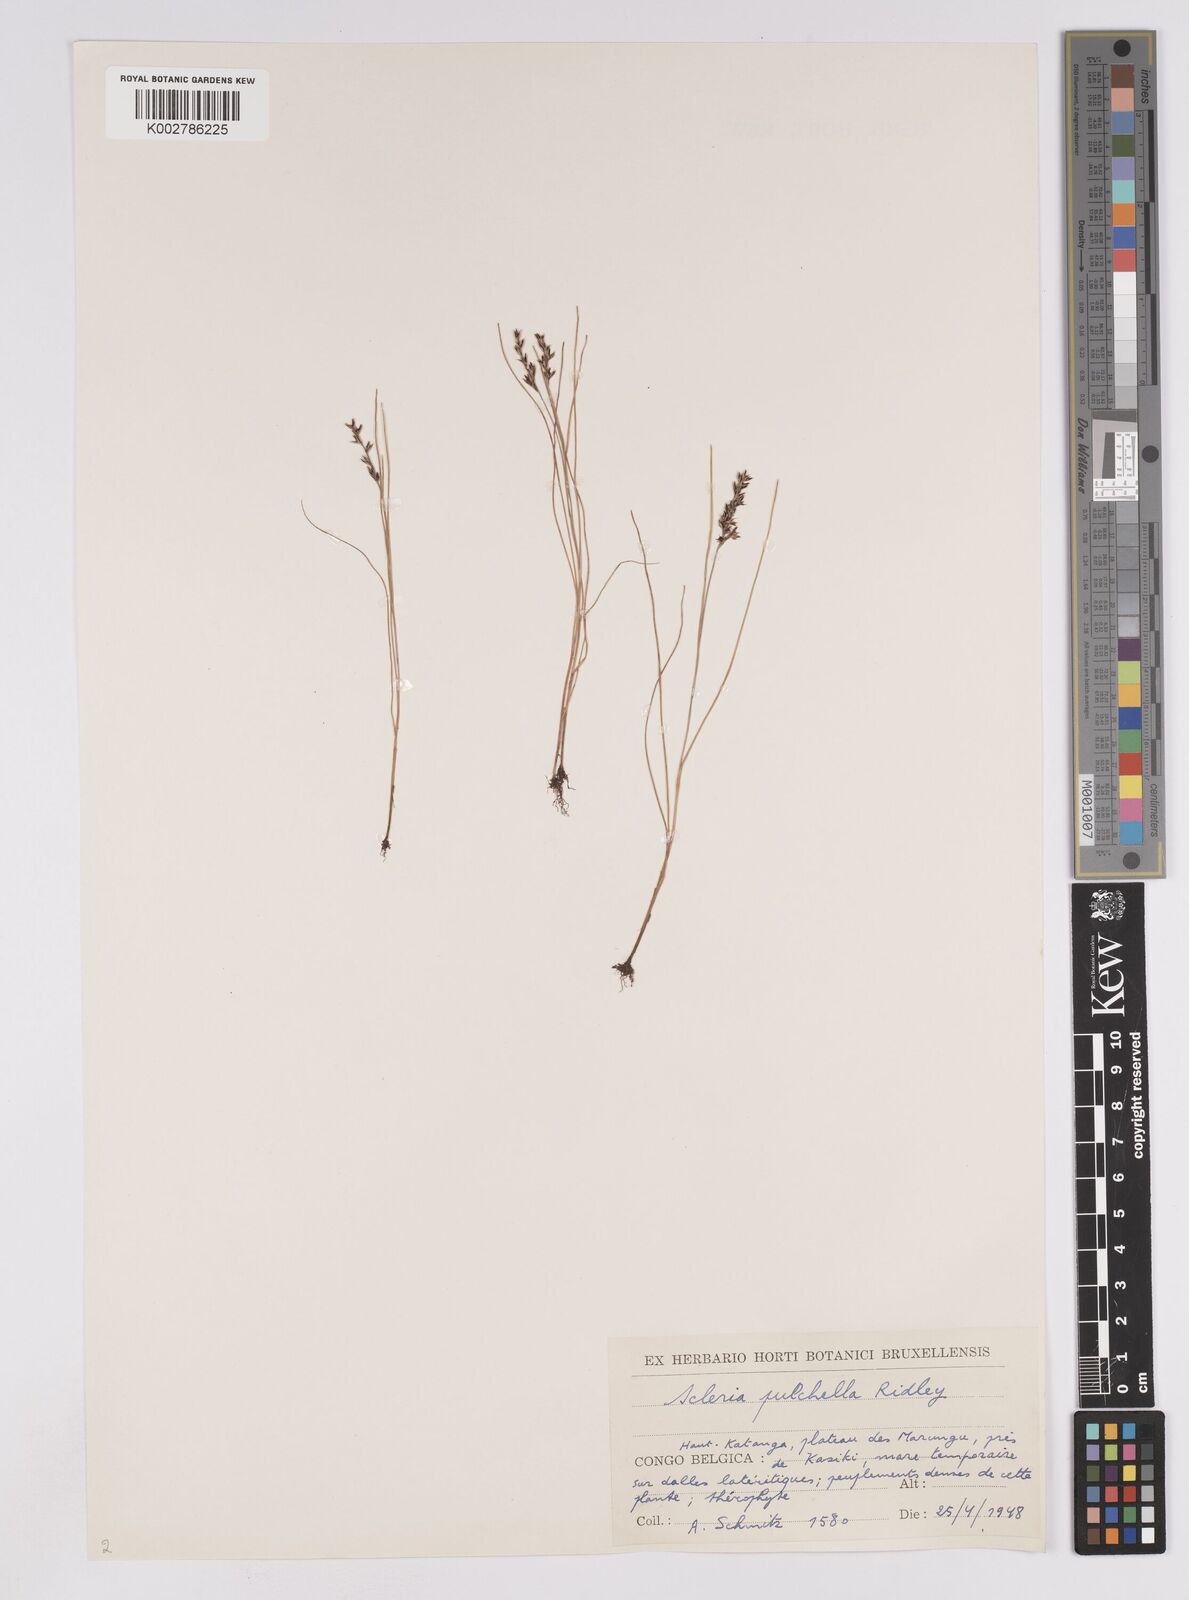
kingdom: Plantae
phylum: Tracheophyta
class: Liliopsida
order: Poales
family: Cyperaceae
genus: Scleria
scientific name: Scleria pulchella
